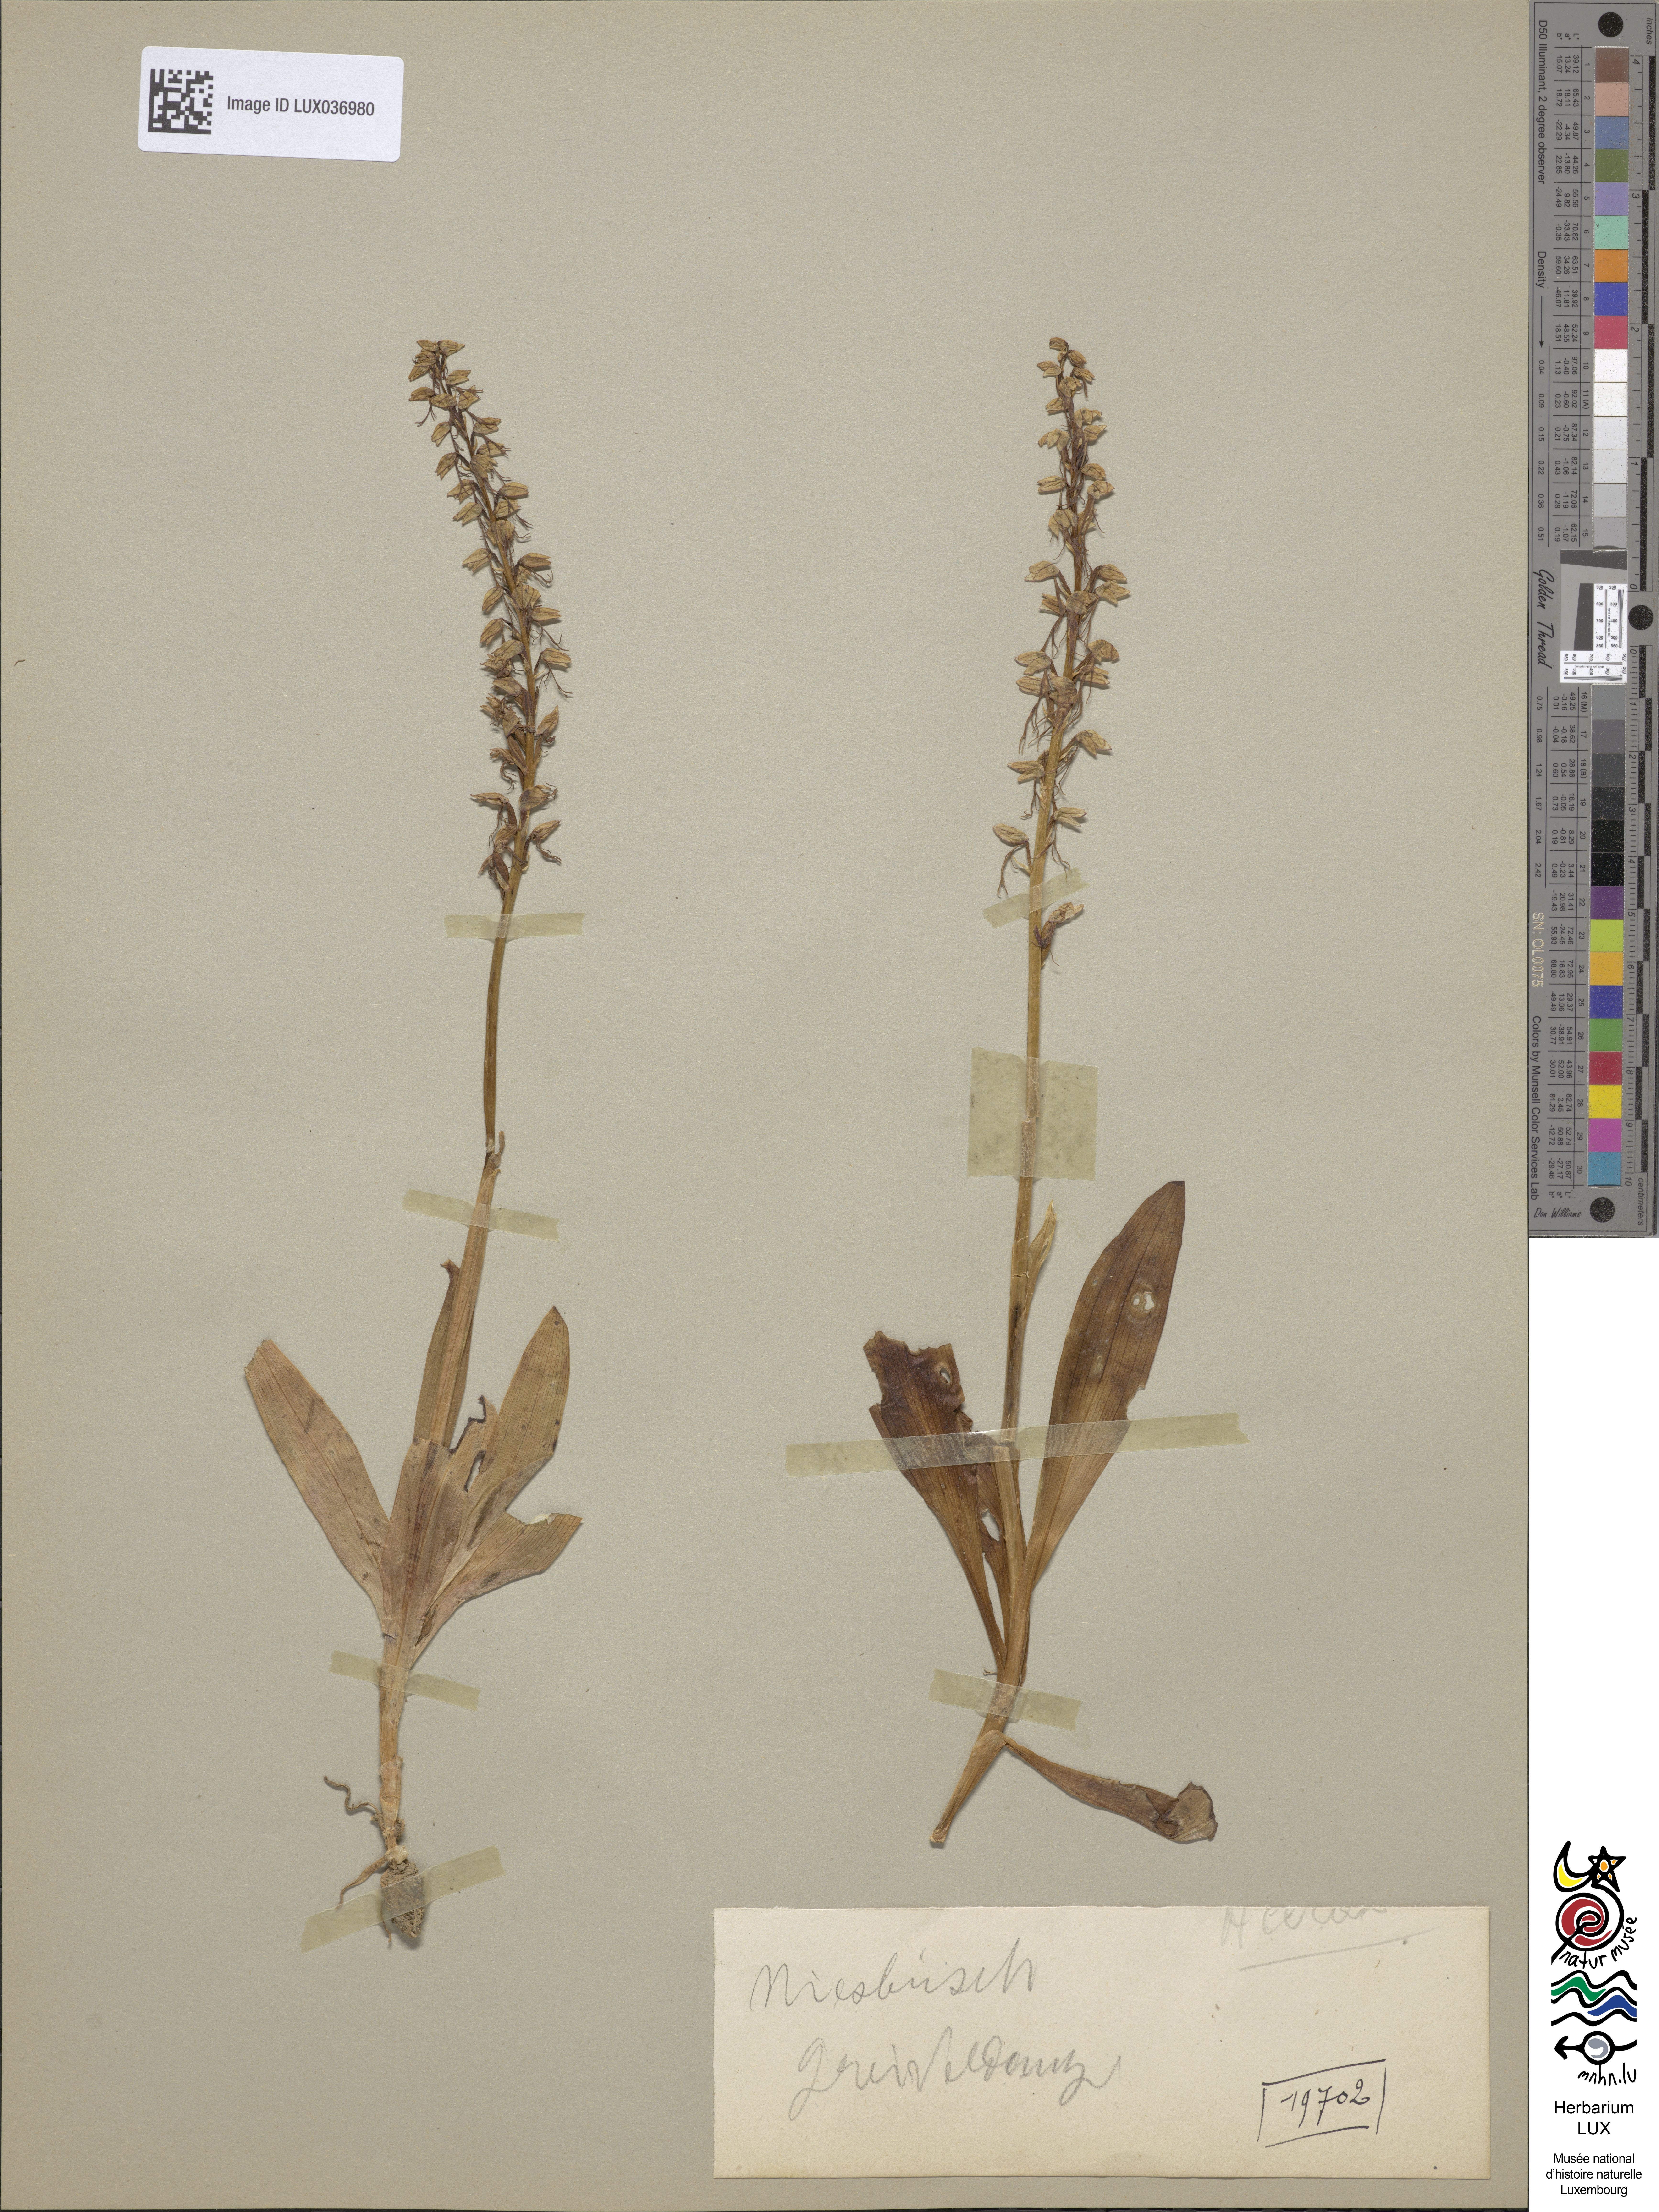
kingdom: Plantae
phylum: Tracheophyta
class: Liliopsida
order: Asparagales
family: Orchidaceae
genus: Orchis
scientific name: Orchis anthropophora
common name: Man orchid
